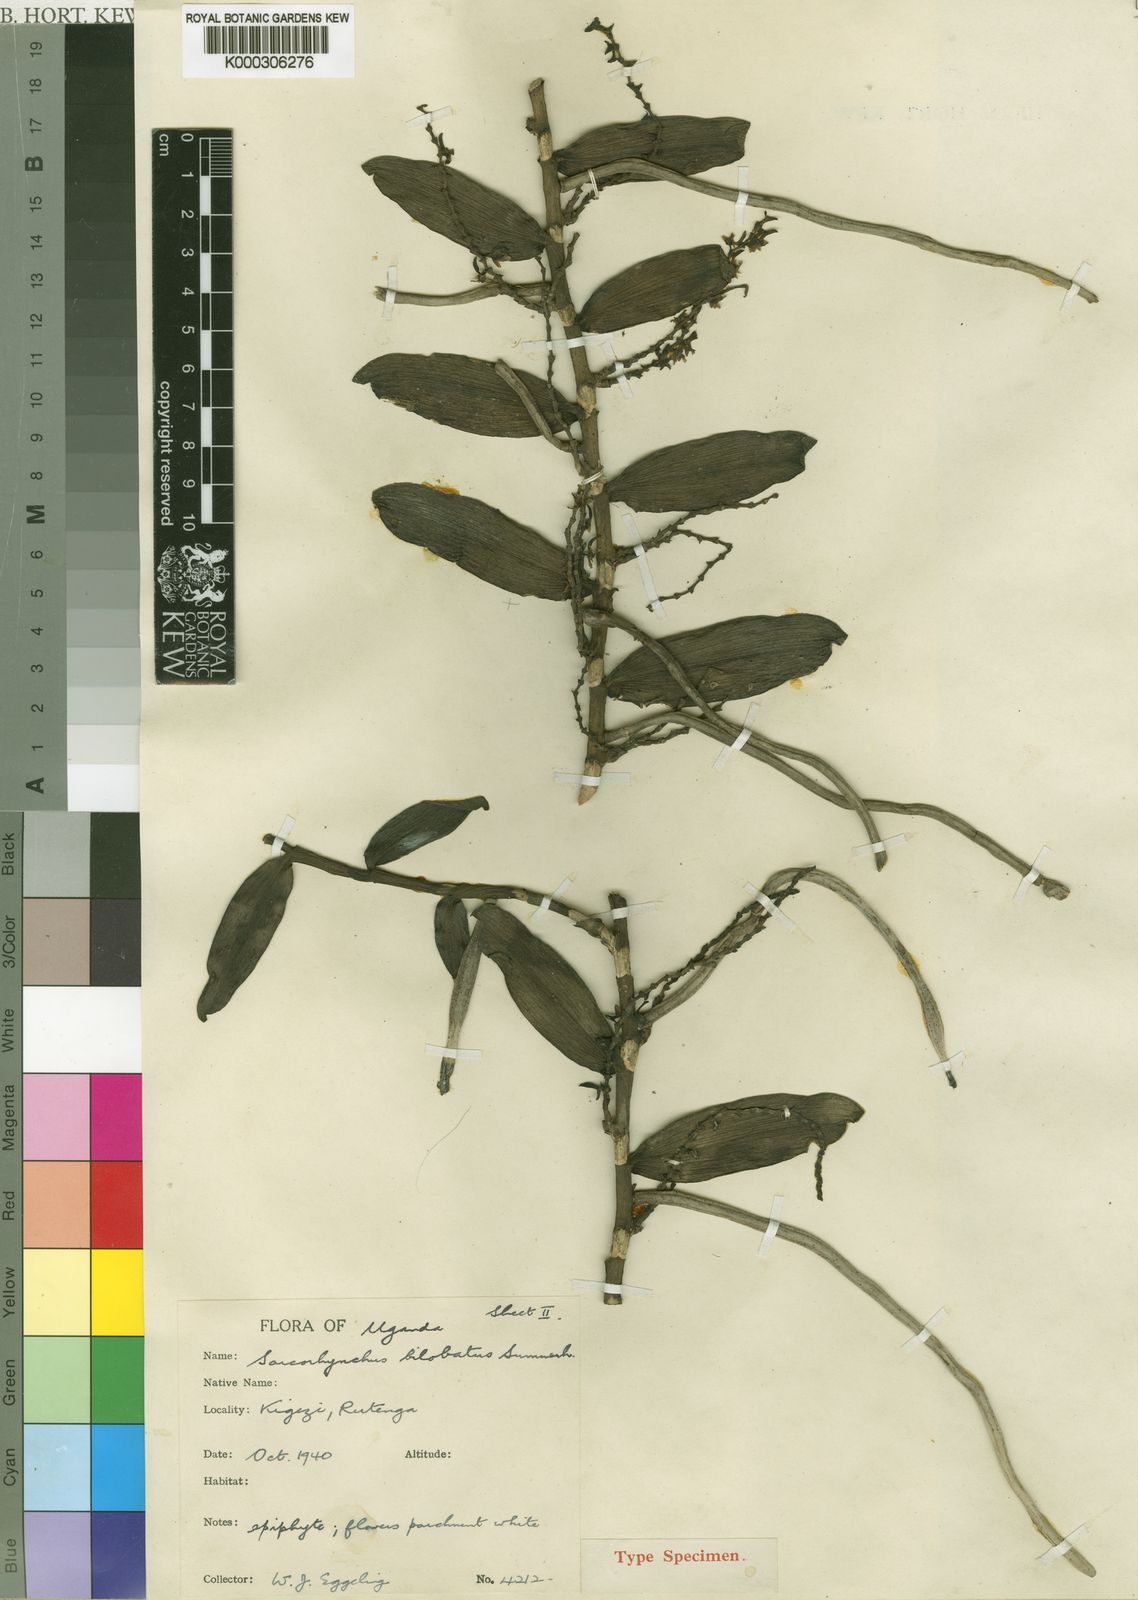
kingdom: Plantae
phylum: Tracheophyta
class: Liliopsida
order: Asparagales
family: Orchidaceae
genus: Rhipidoglossum
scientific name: Rhipidoglossum bilobatum
